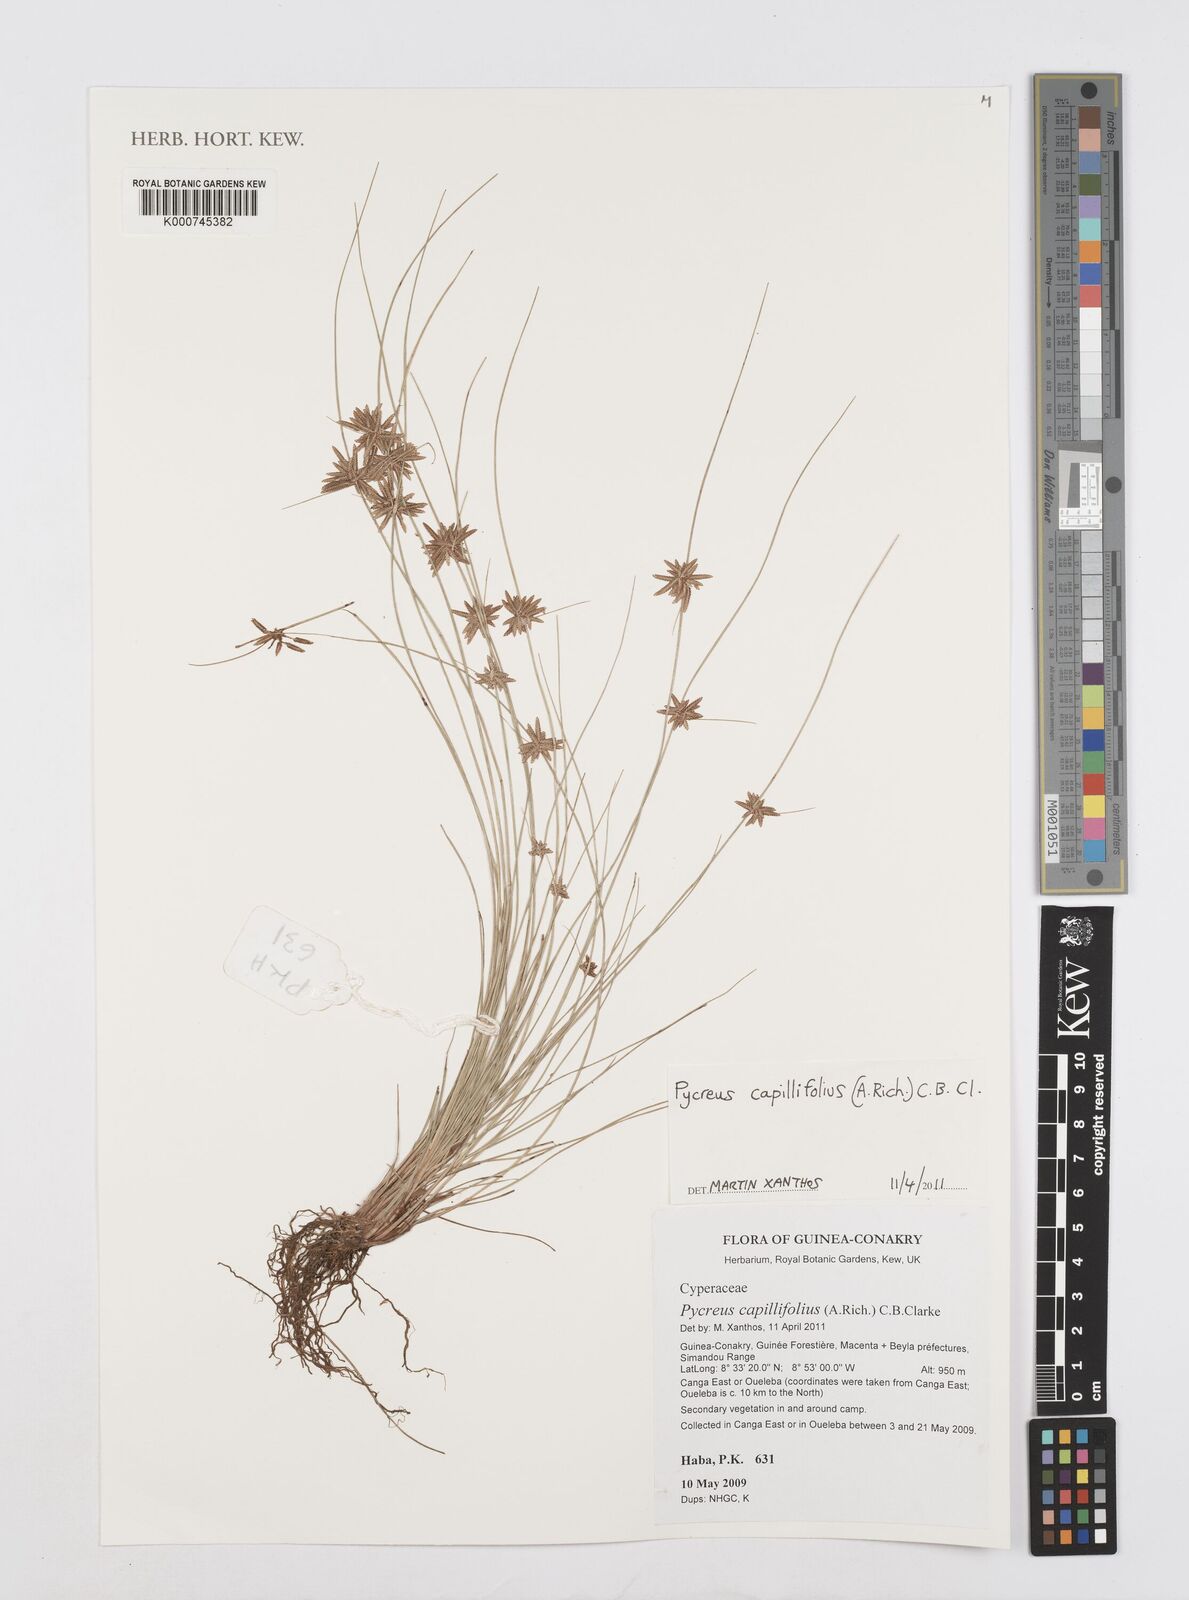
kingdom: Plantae
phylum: Tracheophyta
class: Liliopsida
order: Poales
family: Cyperaceae
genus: Cyperus
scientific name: Cyperus capillifolius
